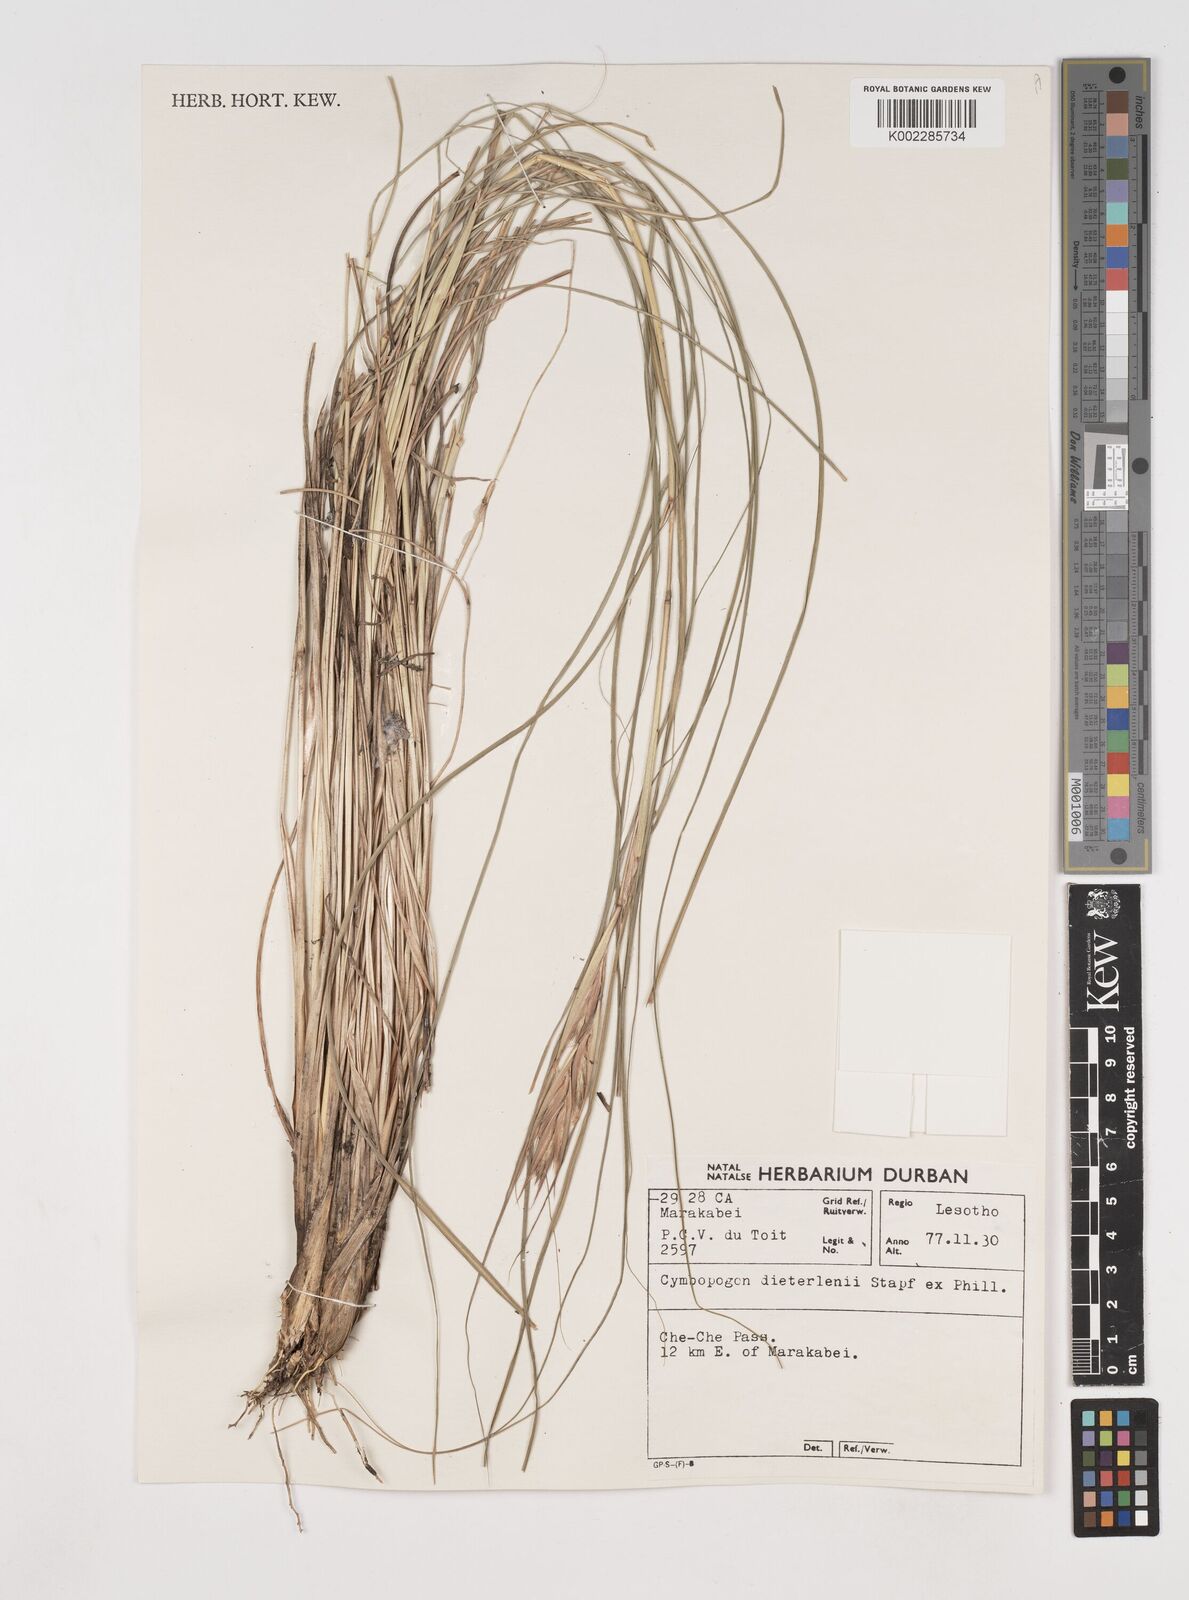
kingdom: Plantae
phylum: Tracheophyta
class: Liliopsida
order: Poales
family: Poaceae
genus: Cymbopogon
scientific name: Cymbopogon dieterlenii
